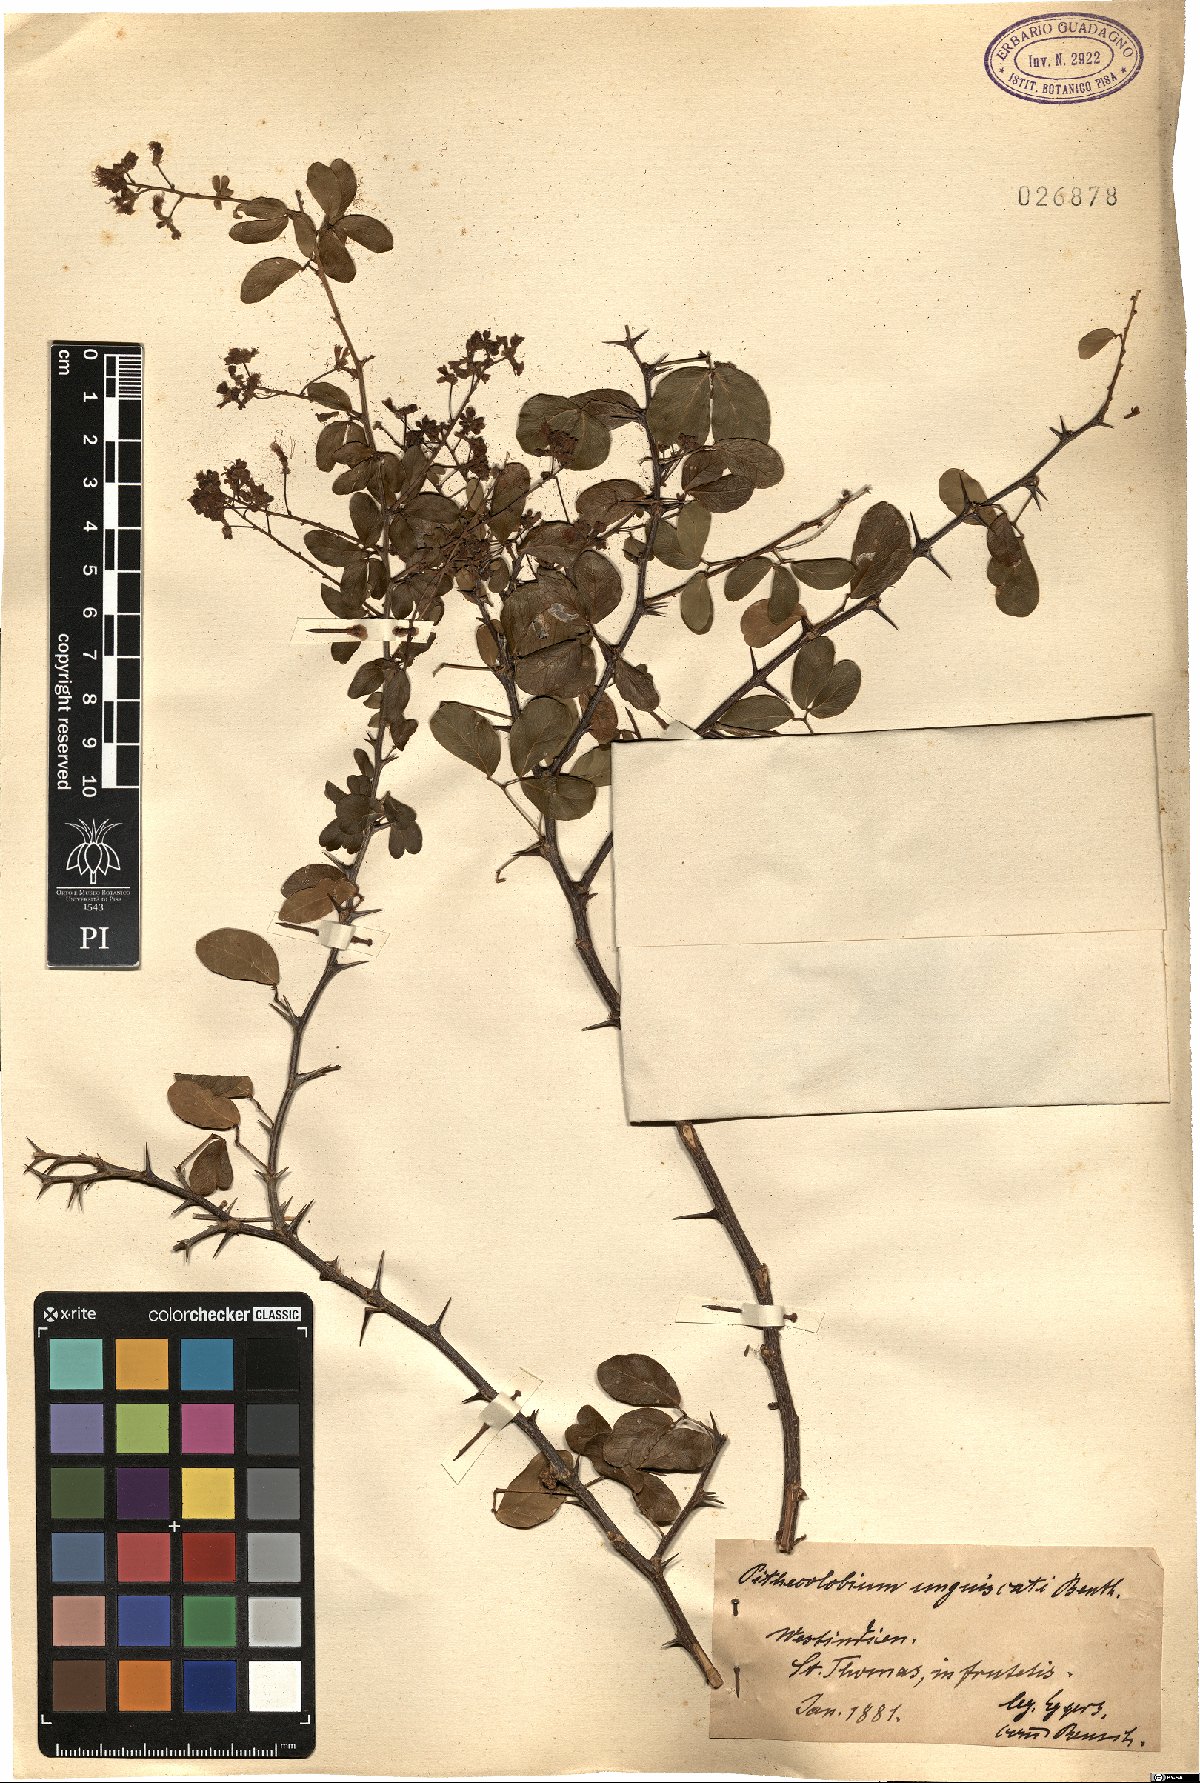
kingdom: Plantae
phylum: Tracheophyta
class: Magnoliopsida
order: Fabales
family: Fabaceae
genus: Pithecellobium
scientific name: Pithecellobium unguis-cati
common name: Cat's-claw
